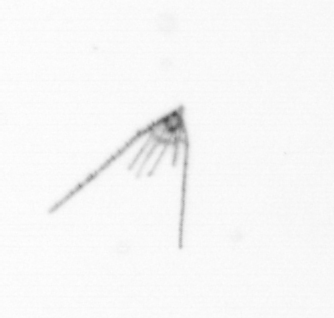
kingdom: Animalia
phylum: Echinodermata
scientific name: Echinodermata
